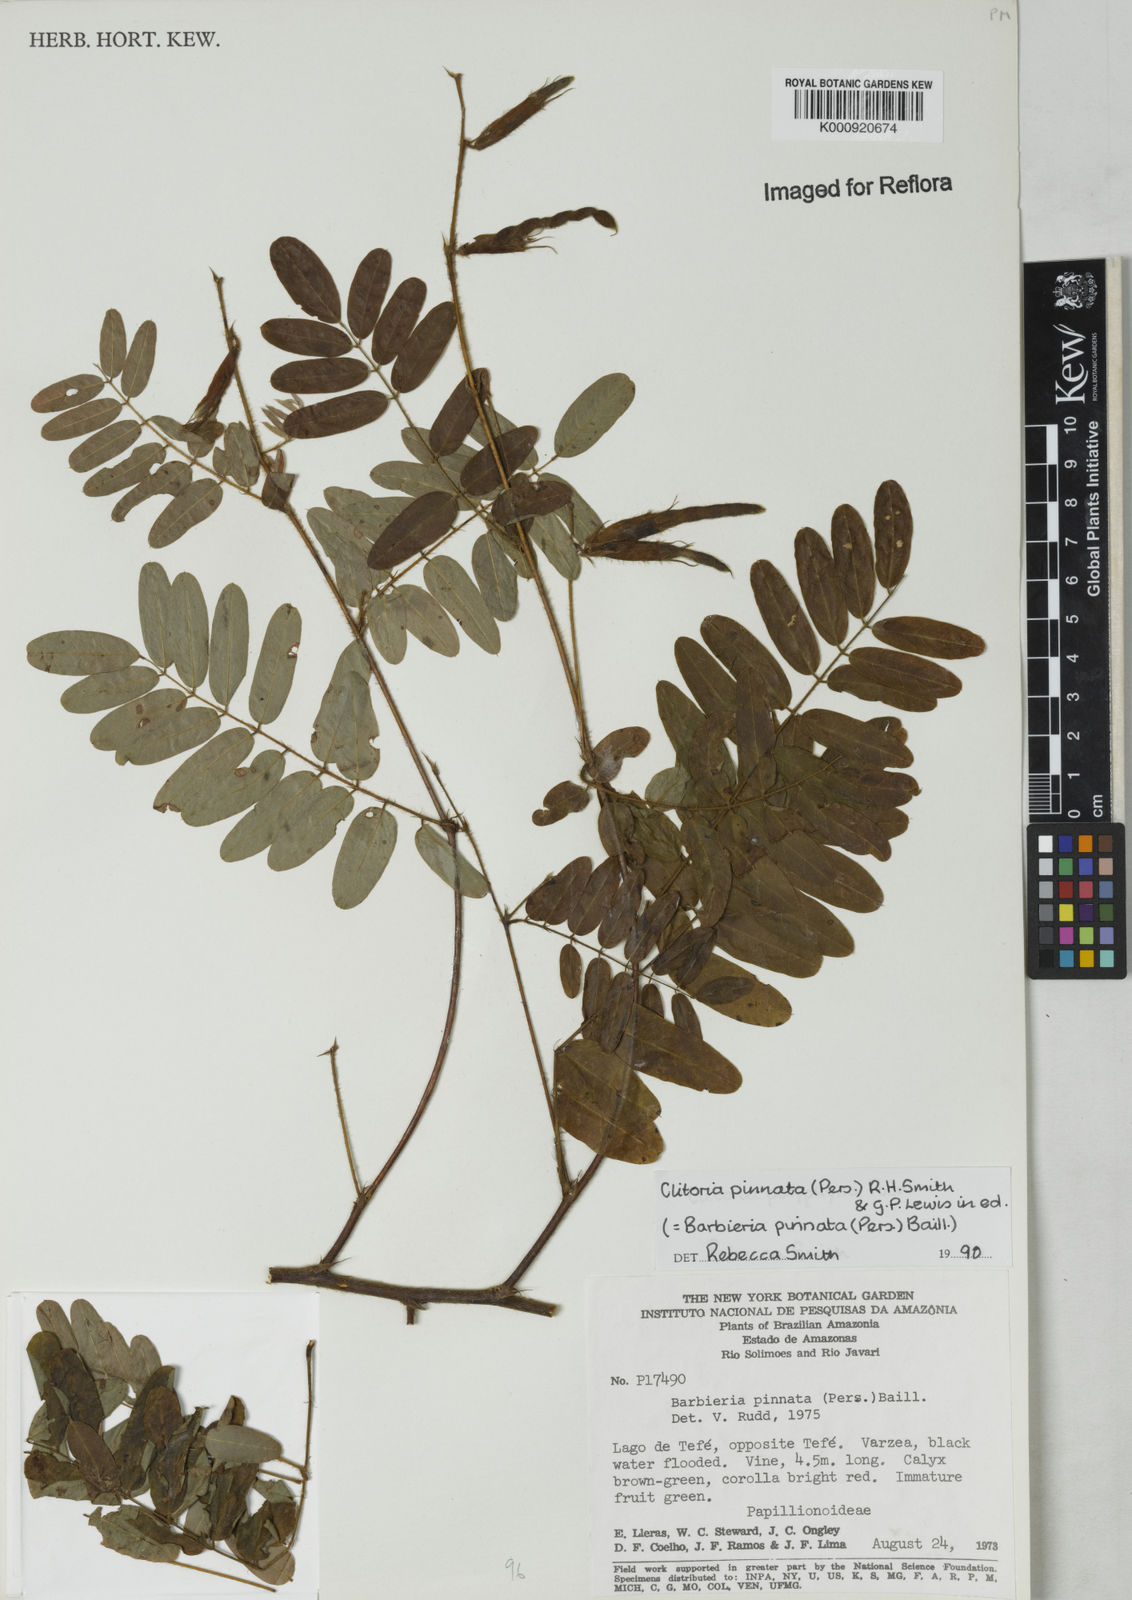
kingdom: Plantae
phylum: Tracheophyta
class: Magnoliopsida
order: Fabales
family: Fabaceae
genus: Barbieria
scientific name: Barbieria pinnata
